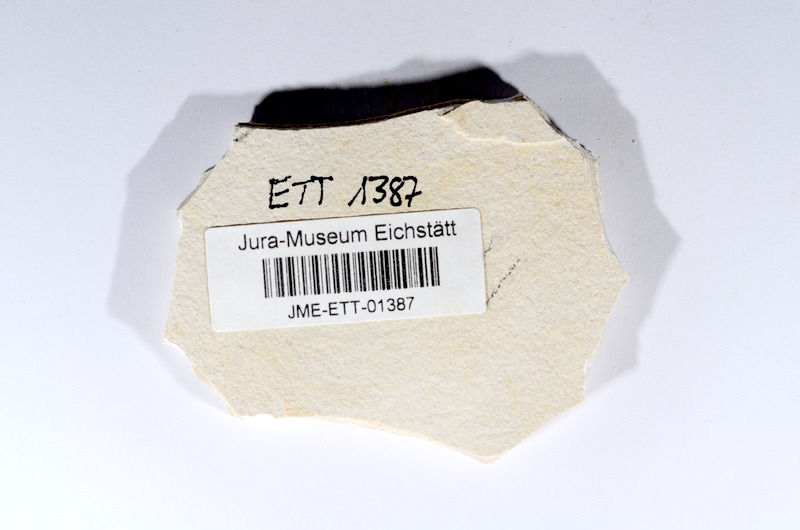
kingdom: Animalia
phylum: Chordata
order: Salmoniformes
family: Orthogonikleithridae
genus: Orthogonikleithrus
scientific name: Orthogonikleithrus hoelli
